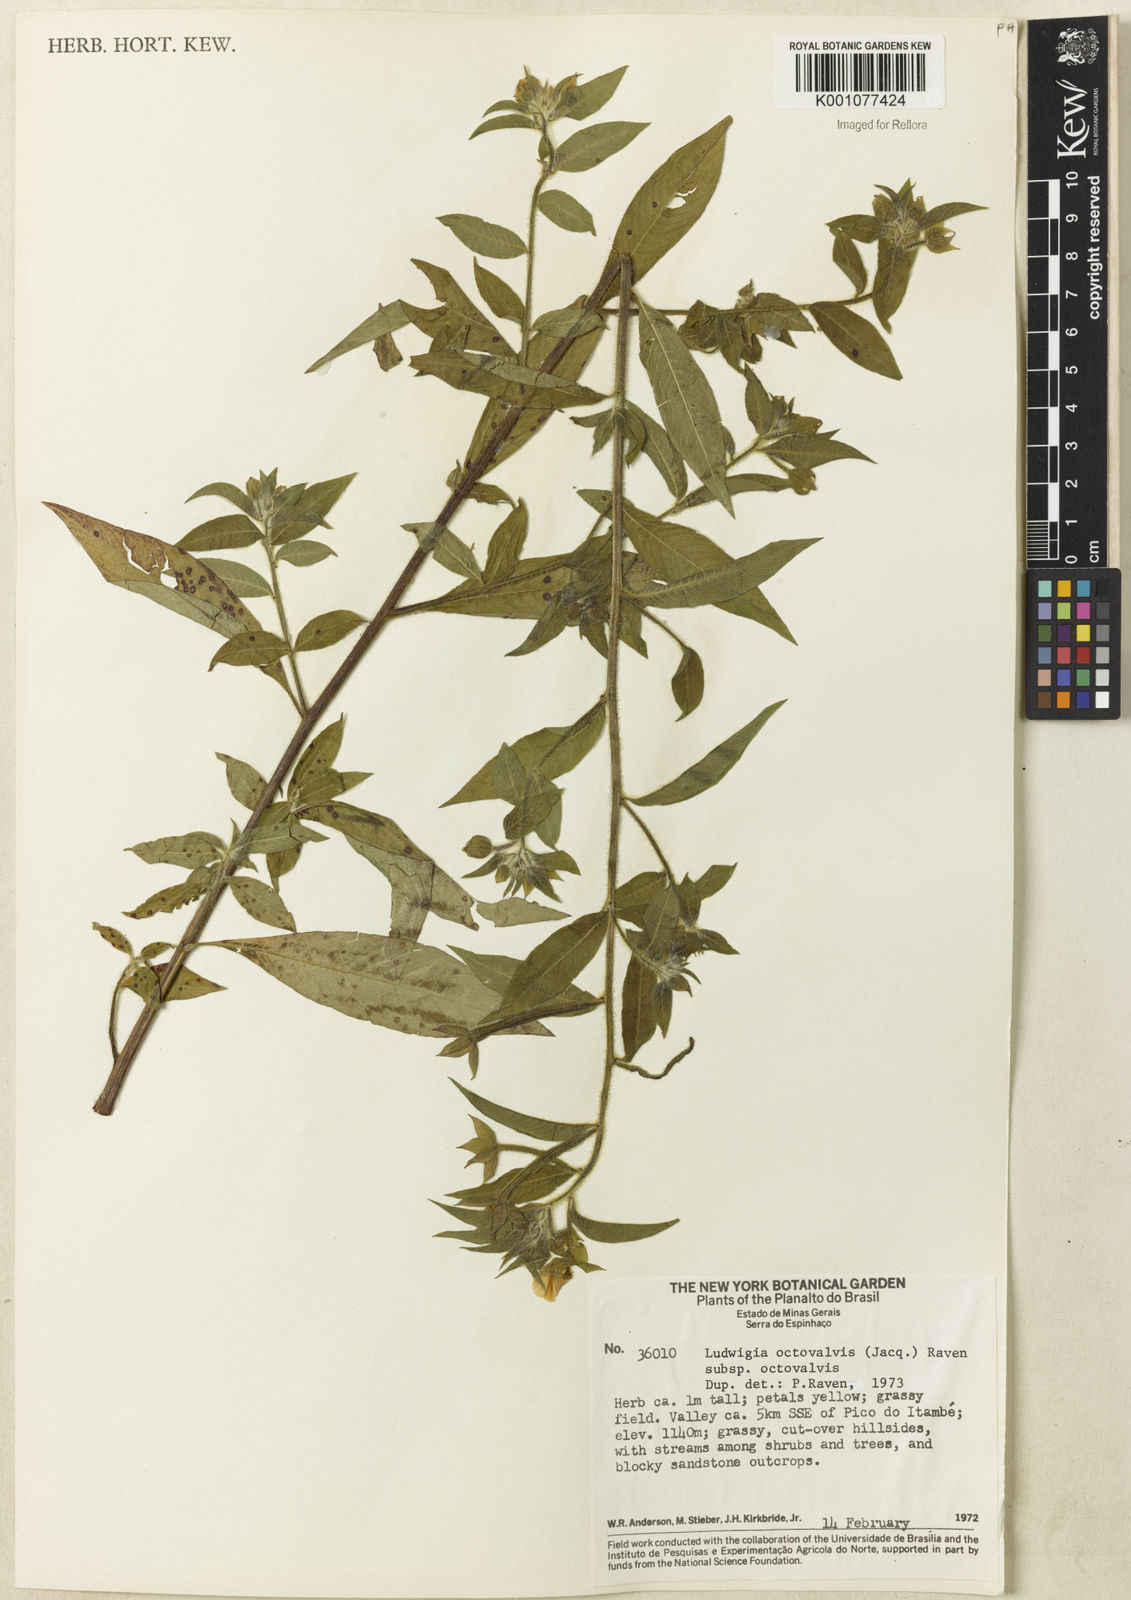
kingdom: Plantae
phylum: Tracheophyta
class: Magnoliopsida
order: Myrtales
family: Onagraceae
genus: Ludwigia
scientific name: Ludwigia octovalvis
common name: Water-primrose
